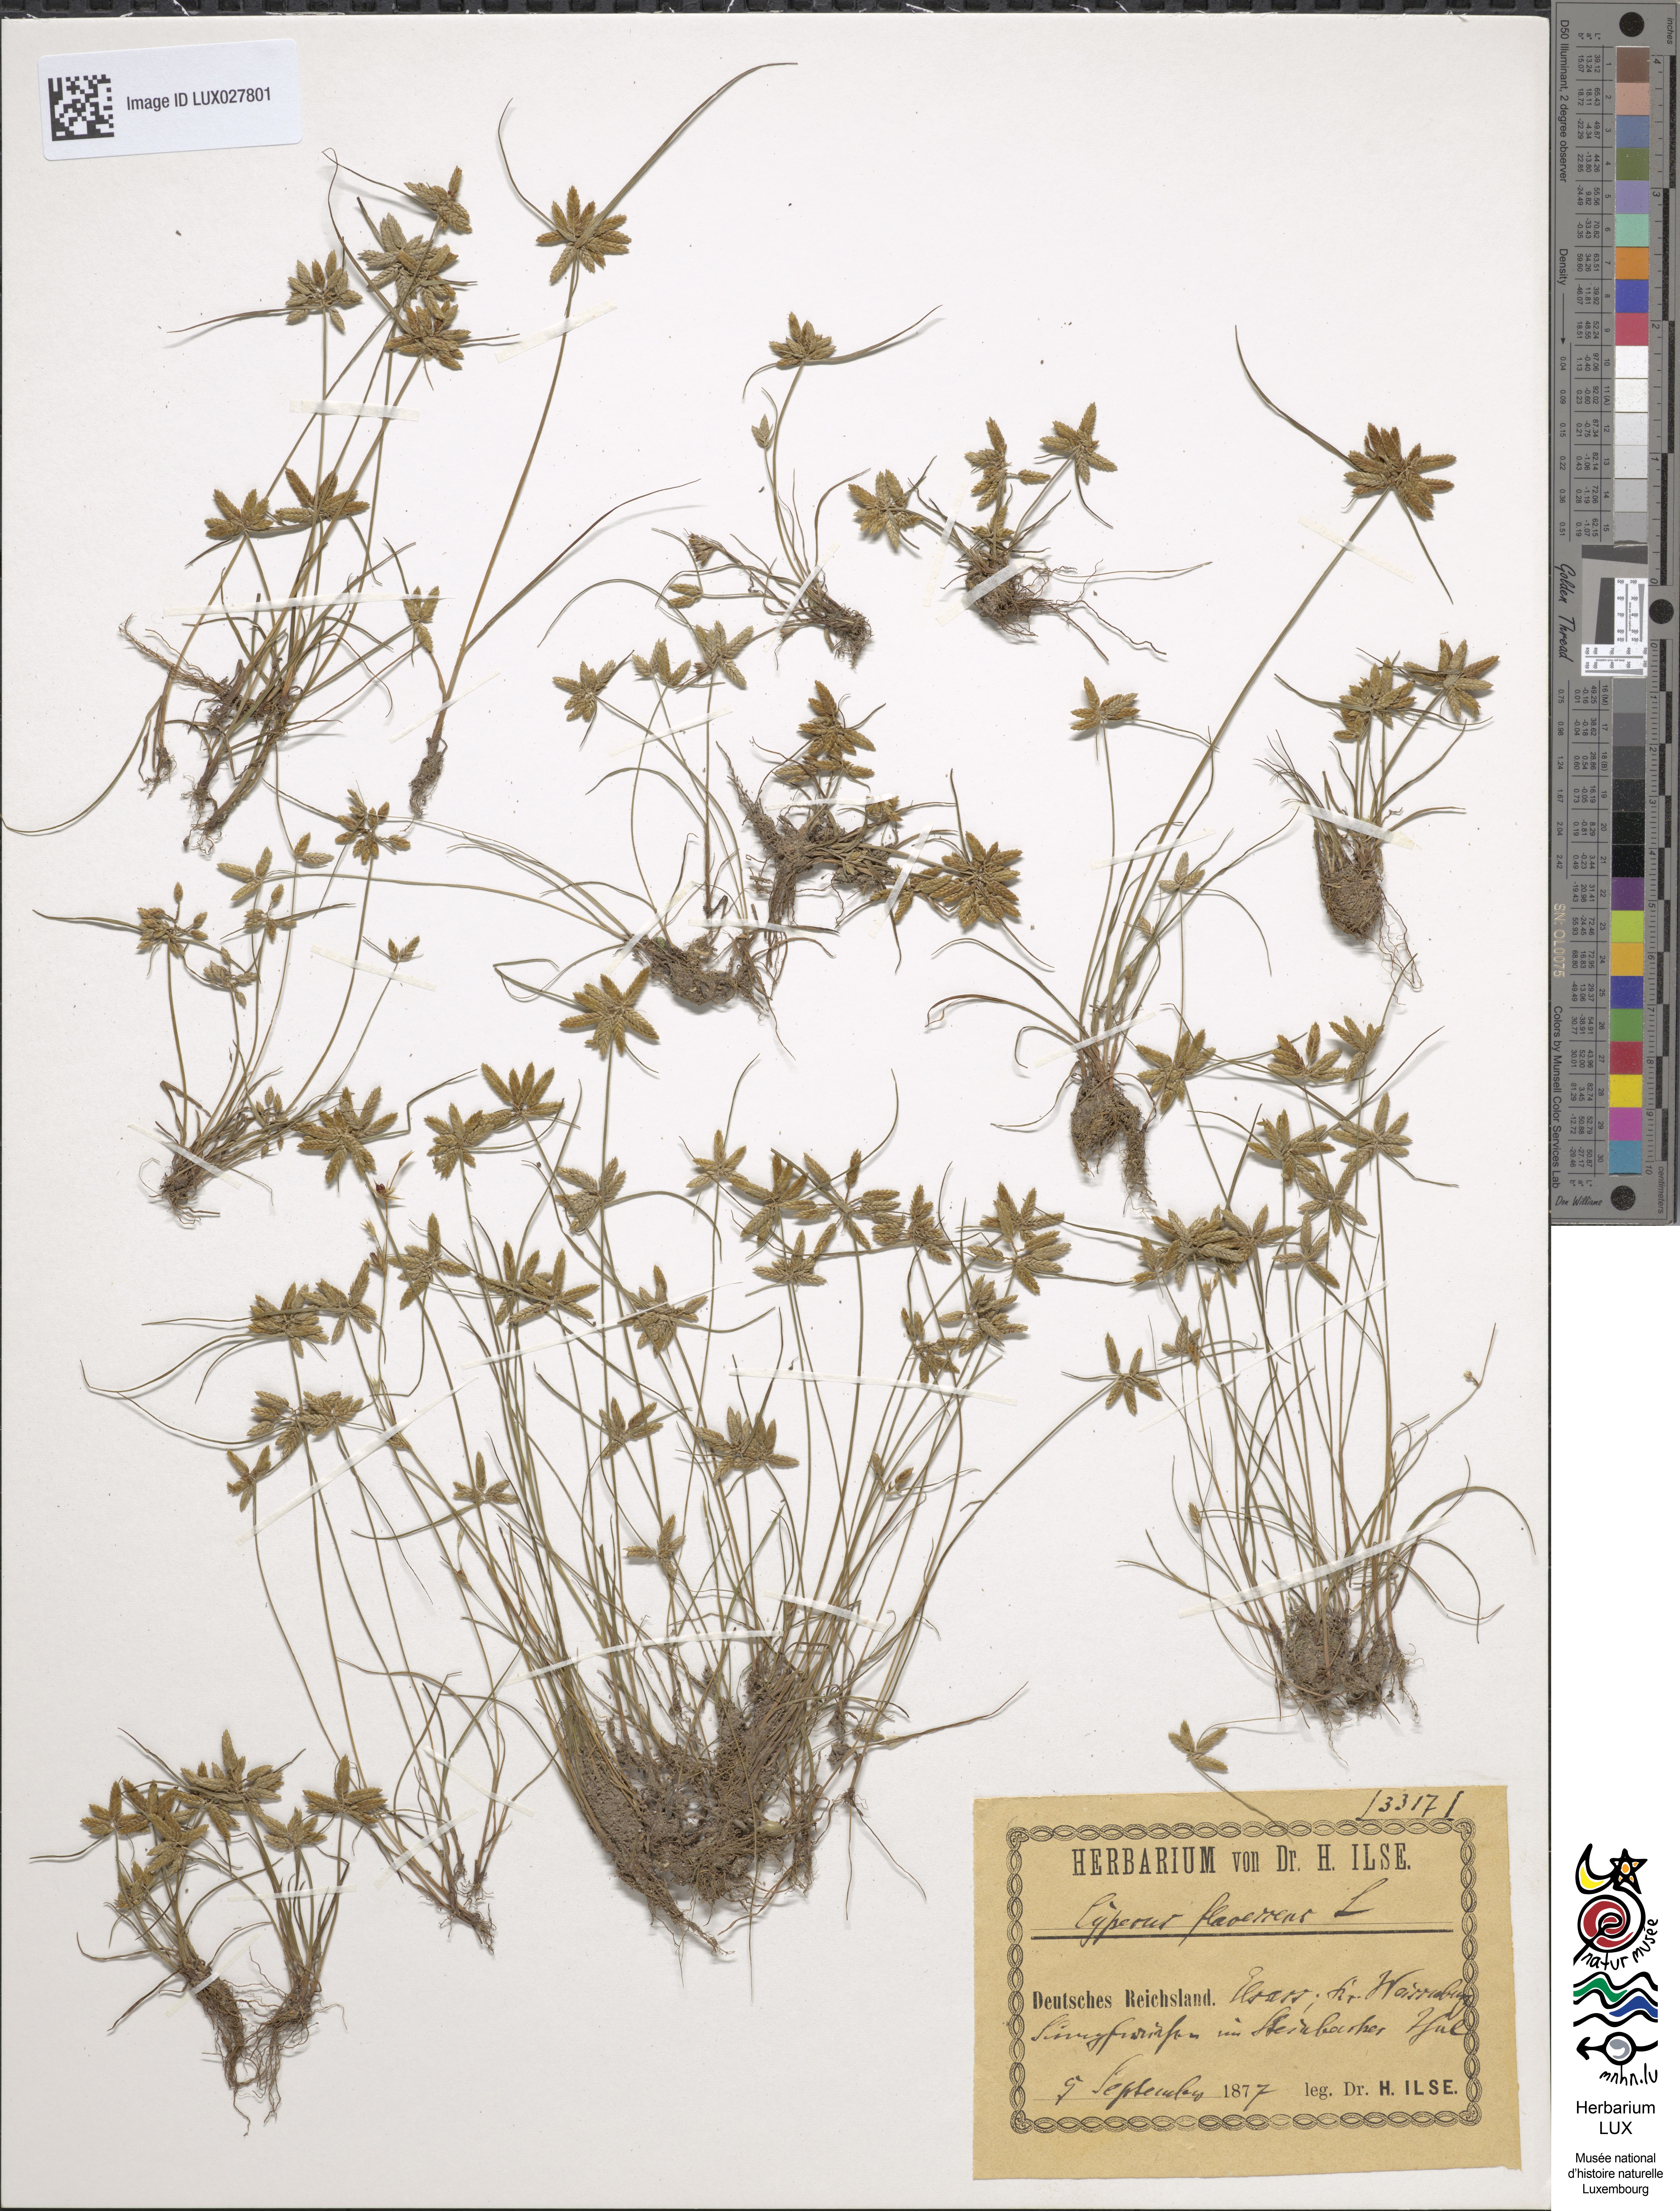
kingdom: Plantae
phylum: Tracheophyta
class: Liliopsida
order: Poales
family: Cyperaceae
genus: Cyperus
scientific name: Cyperus flavescens
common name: Yellow galingale
